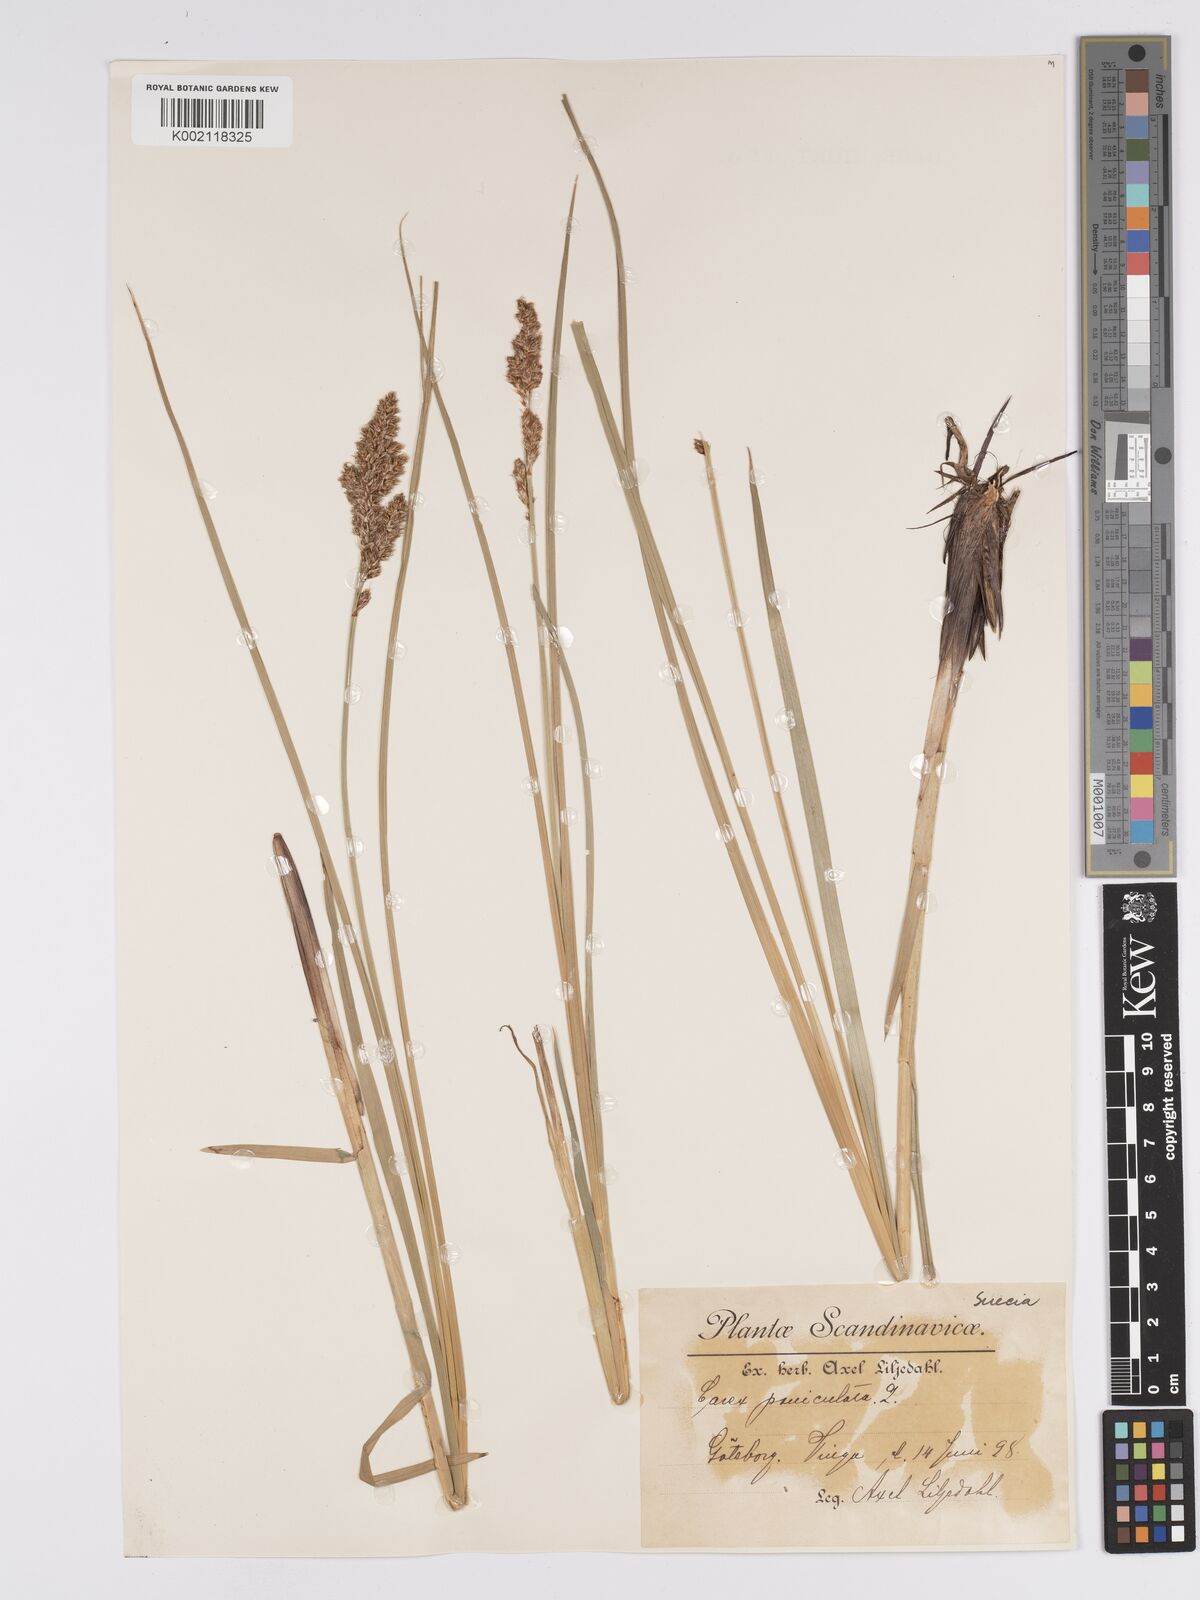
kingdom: Plantae
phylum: Tracheophyta
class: Liliopsida
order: Poales
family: Cyperaceae
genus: Carex
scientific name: Carex paniculata
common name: Greater tussock-sedge
